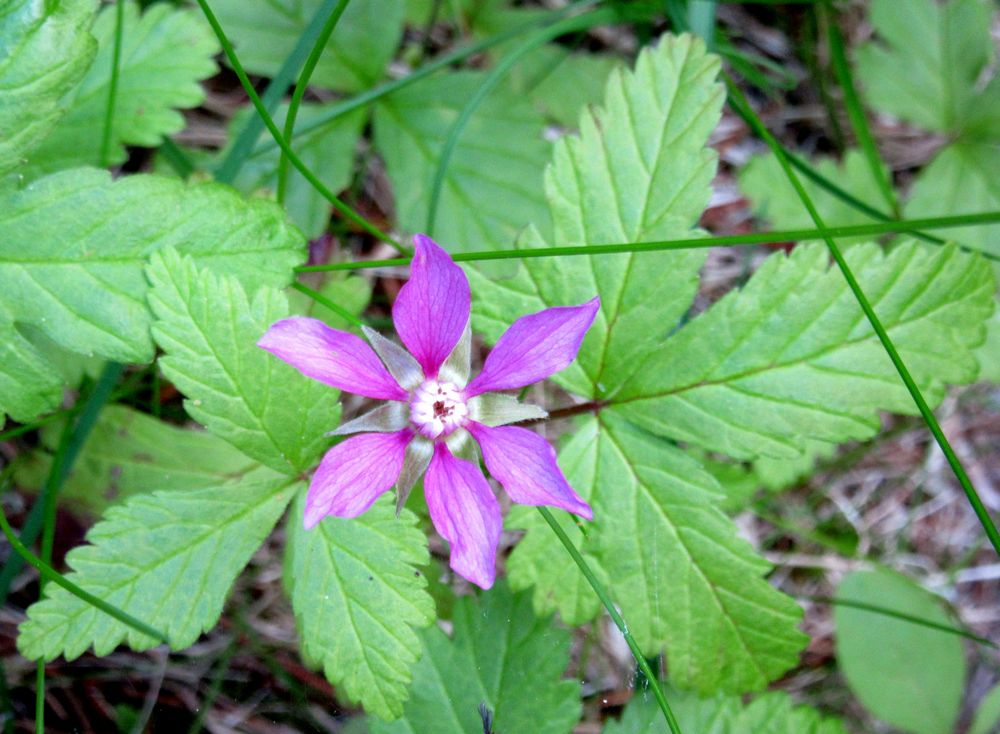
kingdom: Plantae
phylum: Tracheophyta
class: Magnoliopsida
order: Rosales
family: Rosaceae
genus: Rubus
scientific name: Rubus arcticus
